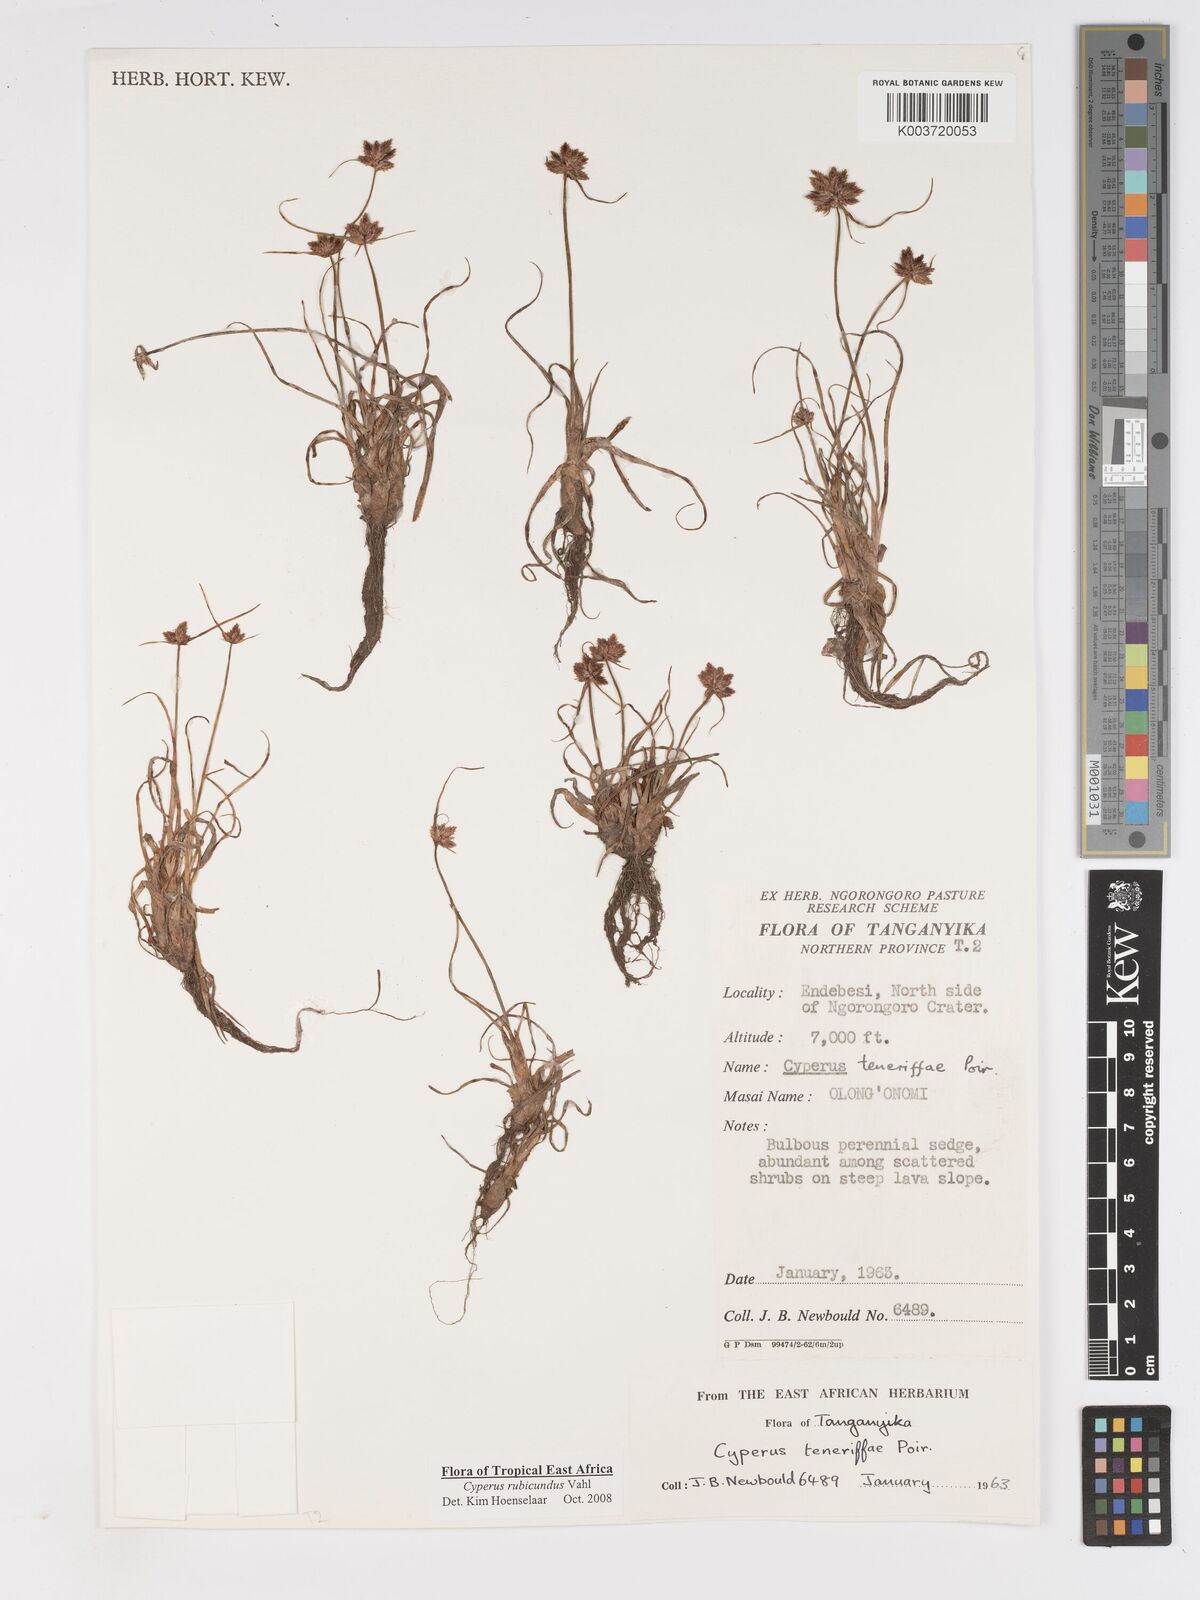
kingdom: Plantae
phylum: Tracheophyta
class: Liliopsida
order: Poales
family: Cyperaceae
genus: Cyperus
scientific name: Cyperus rubicundus
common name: Coco-grass
